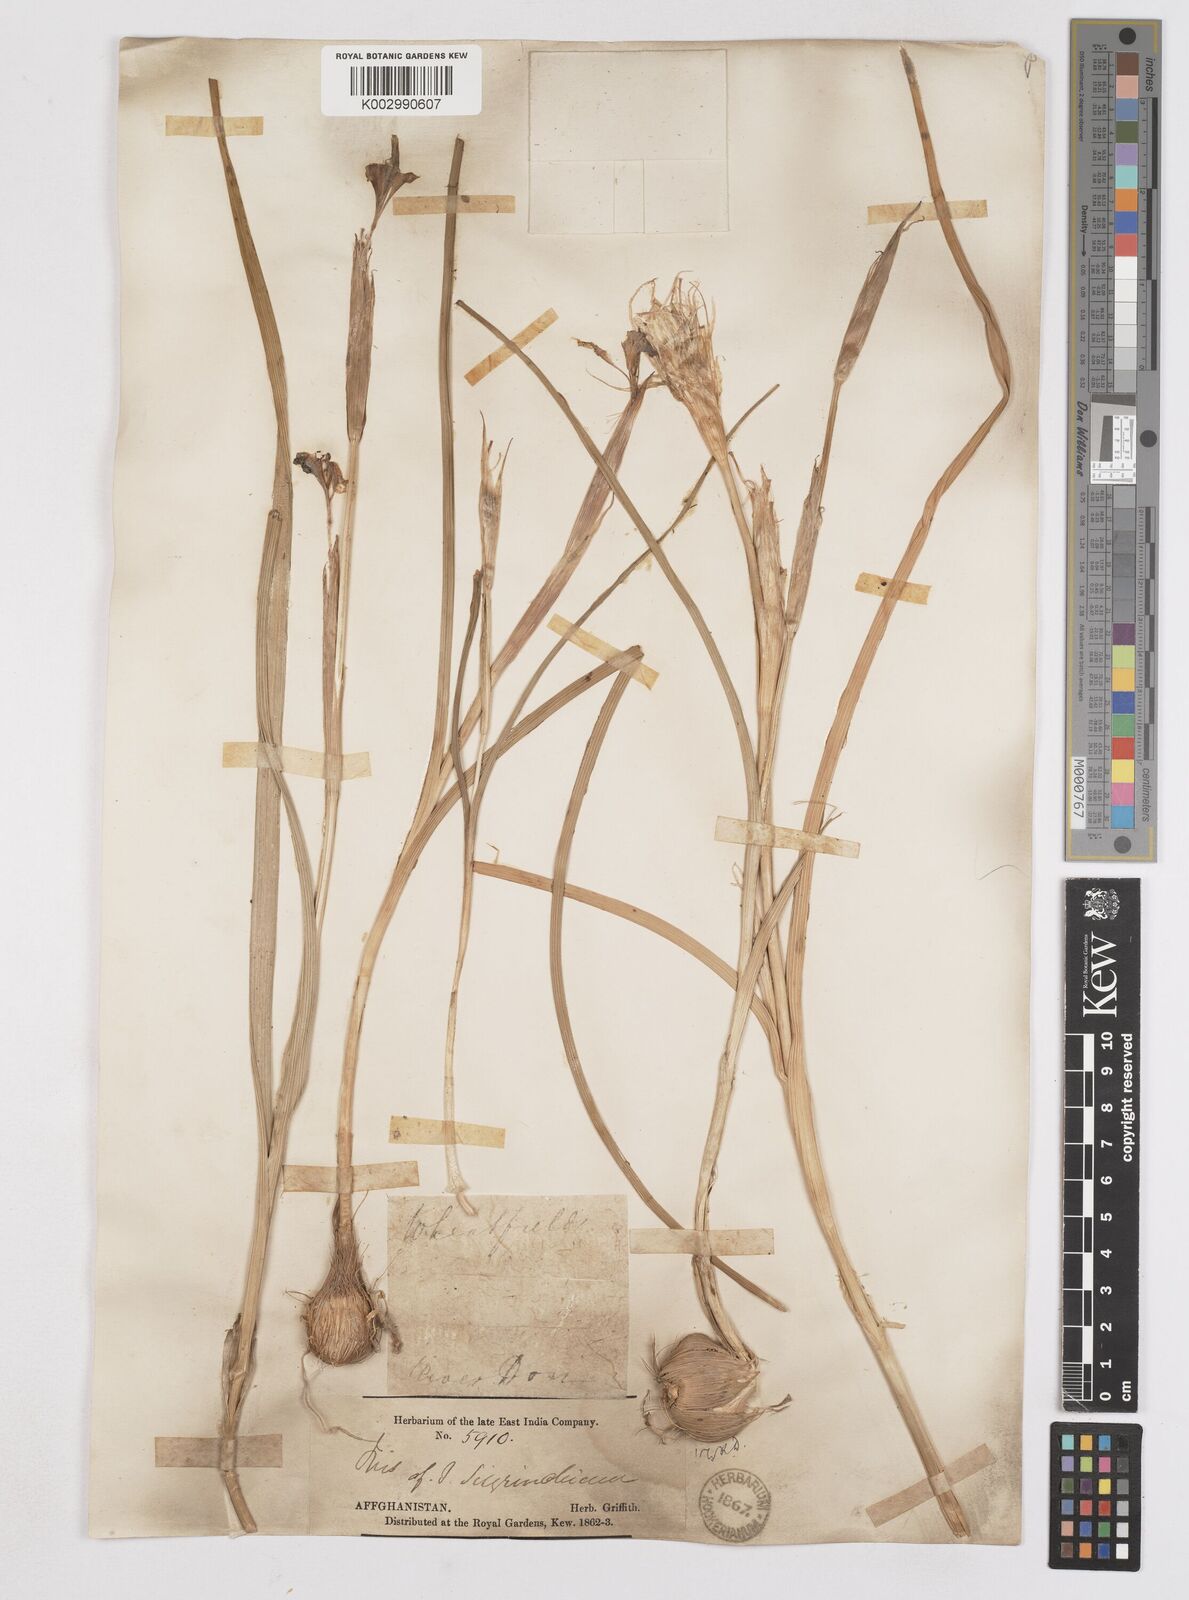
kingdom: Plantae
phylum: Tracheophyta
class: Liliopsida
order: Asparagales
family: Iridaceae
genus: Moraea
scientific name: Moraea sisyrinchium
